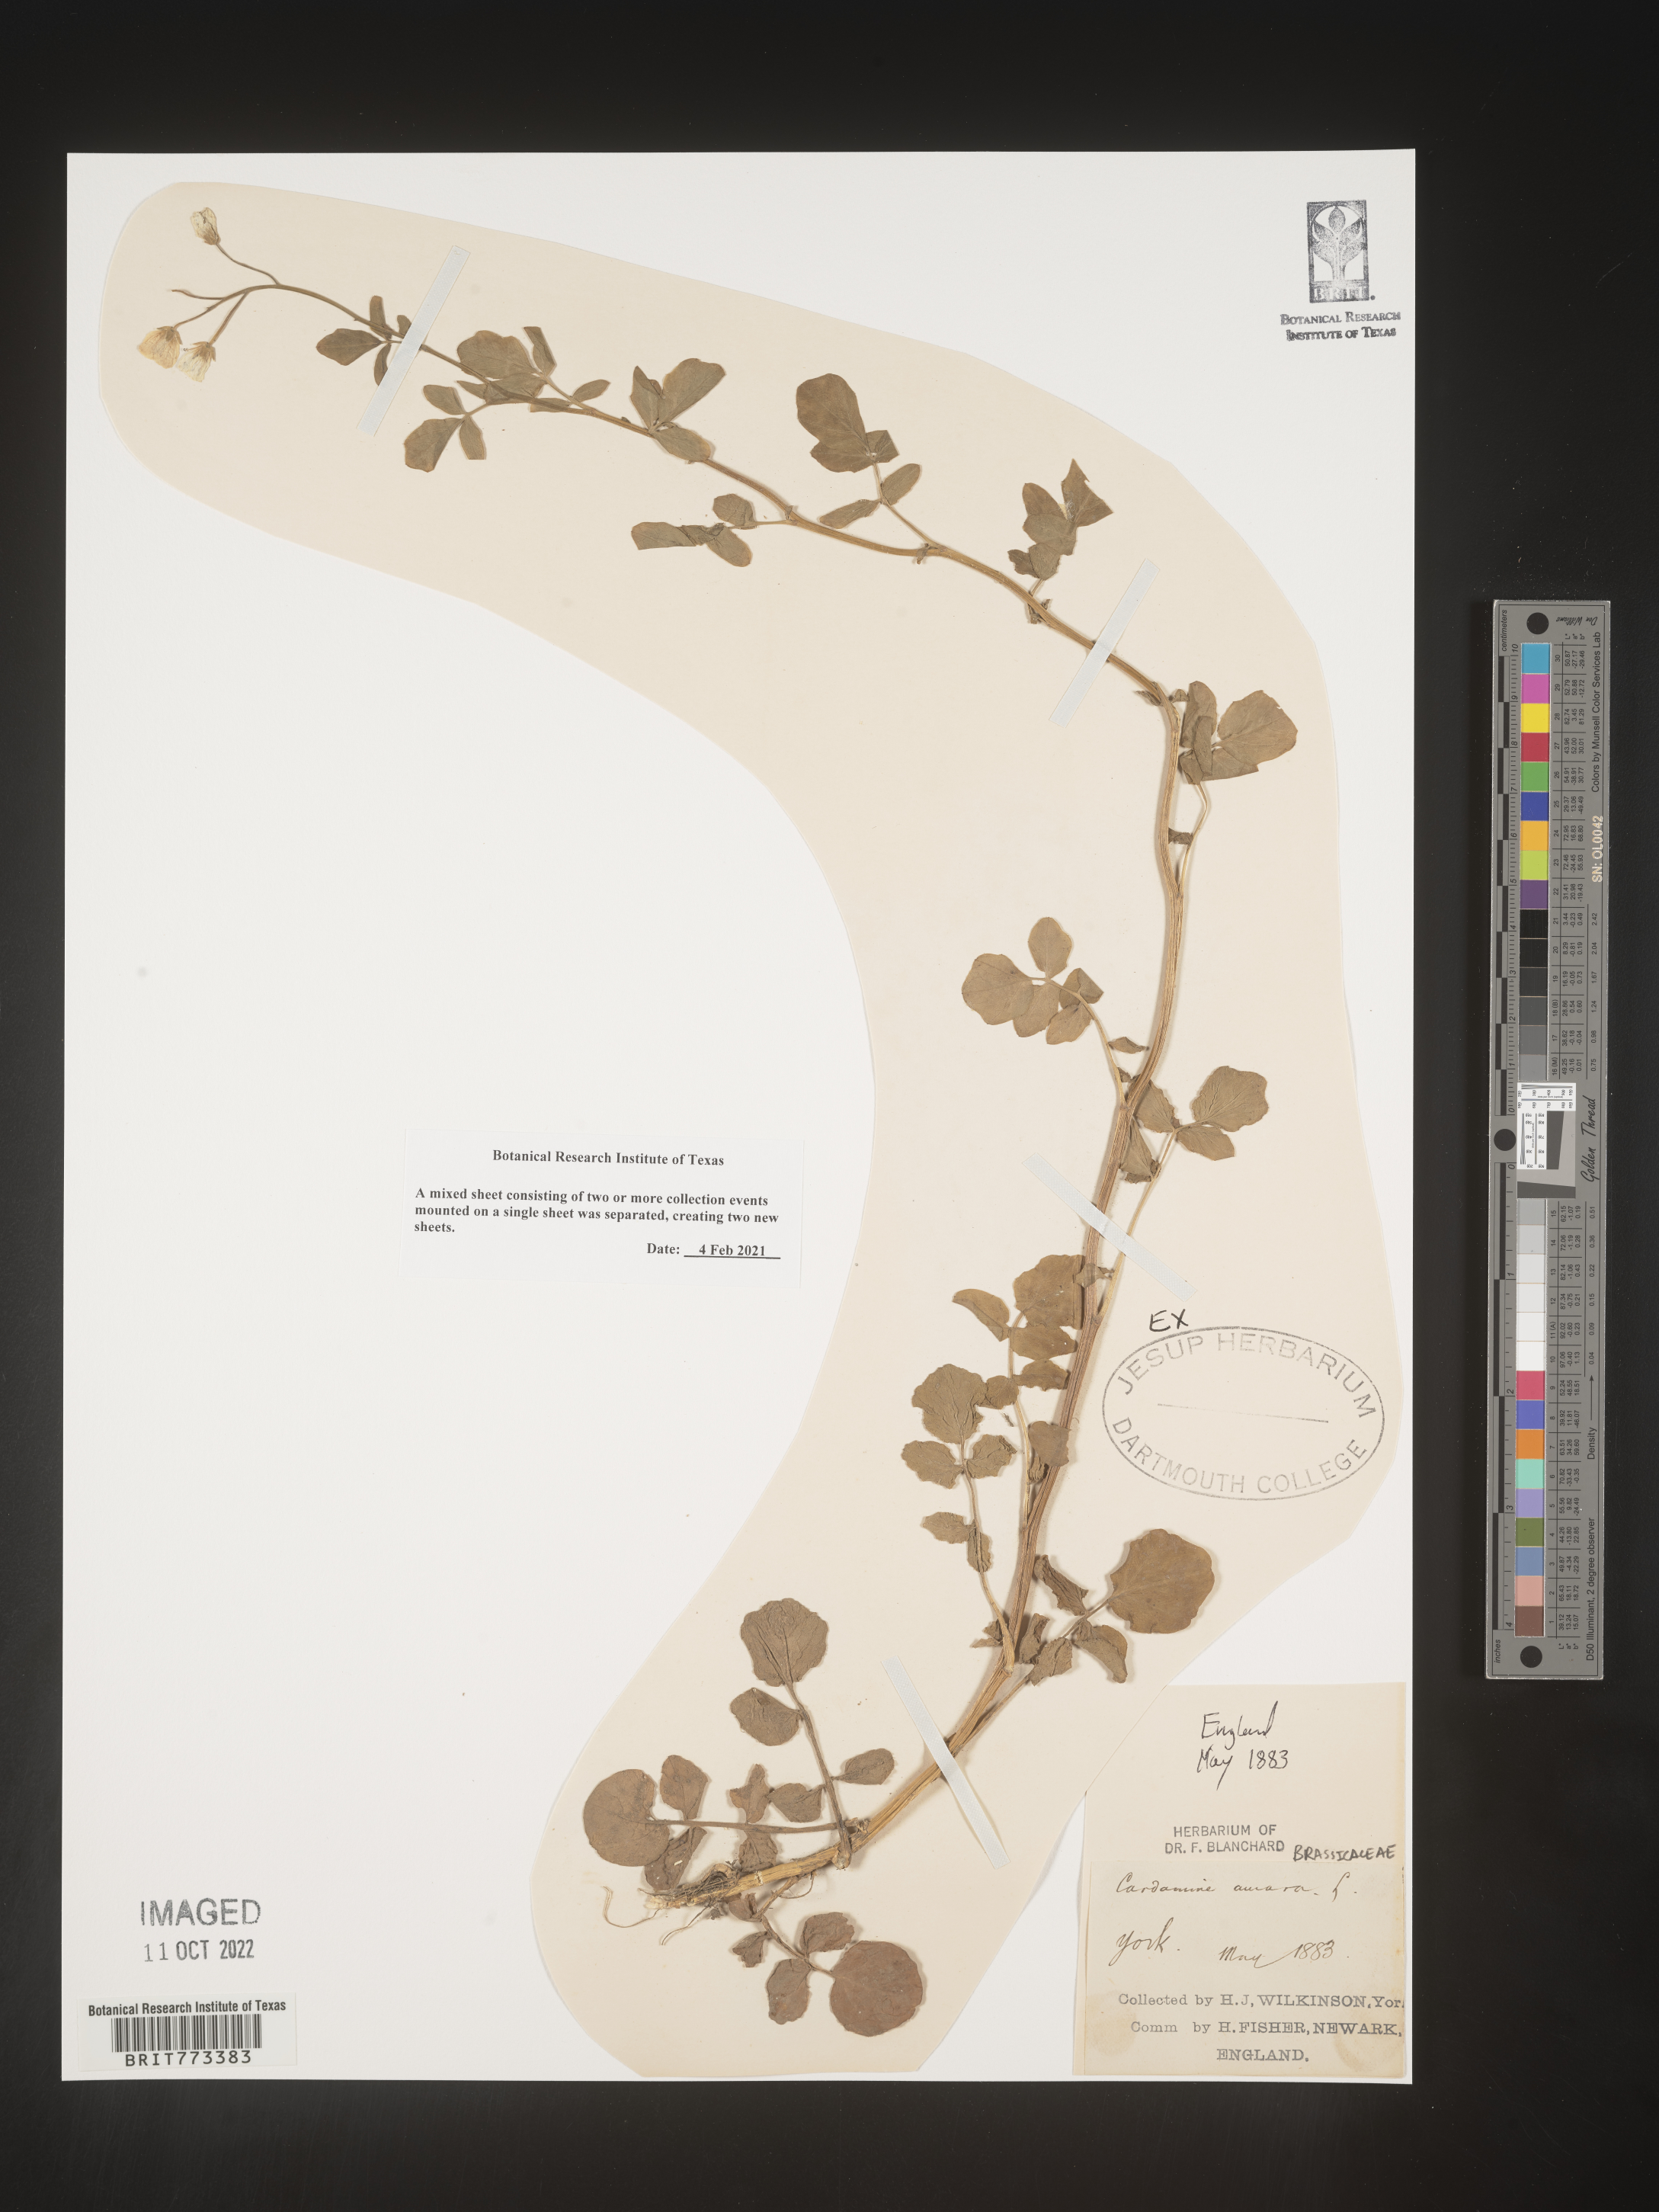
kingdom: Plantae
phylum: Tracheophyta
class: Magnoliopsida
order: Brassicales
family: Brassicaceae
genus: Cardamine
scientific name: Cardamine
